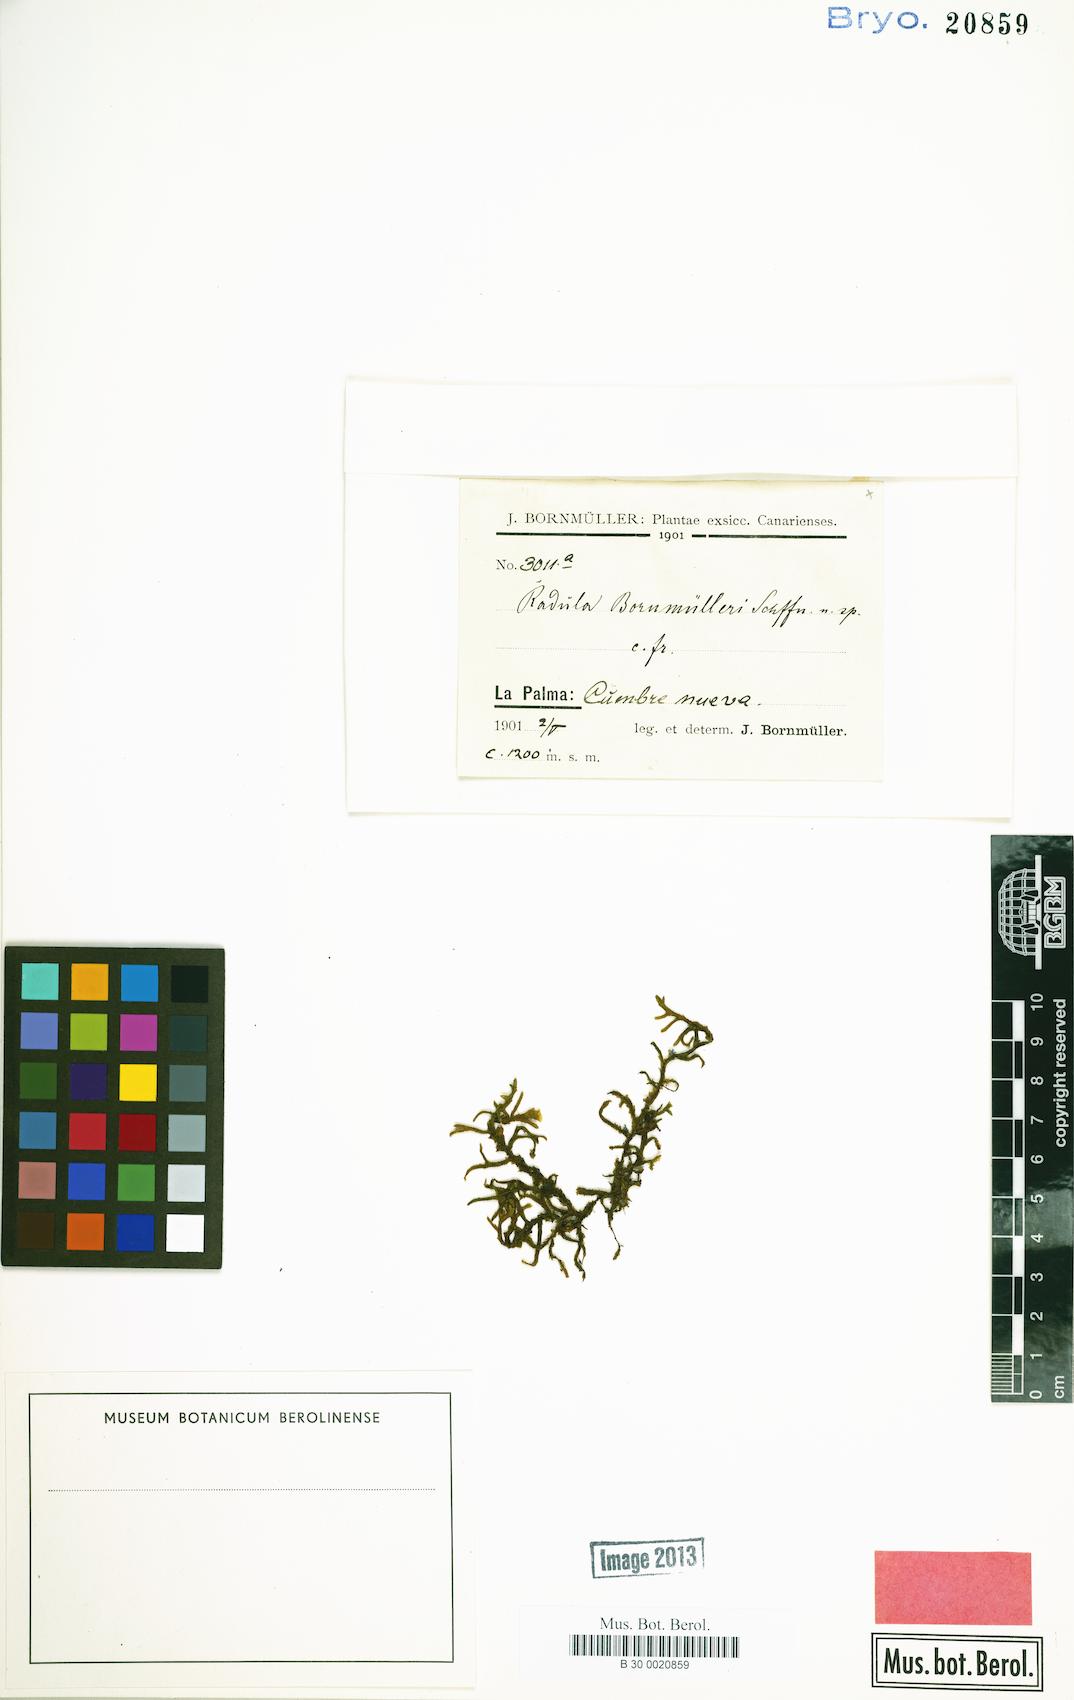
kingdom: Plantae
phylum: Marchantiophyta
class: Jungermanniopsida
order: Porellales
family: Radulaceae
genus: Radula
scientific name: Radula lindenbergiana
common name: Lindenberg's scalewort
